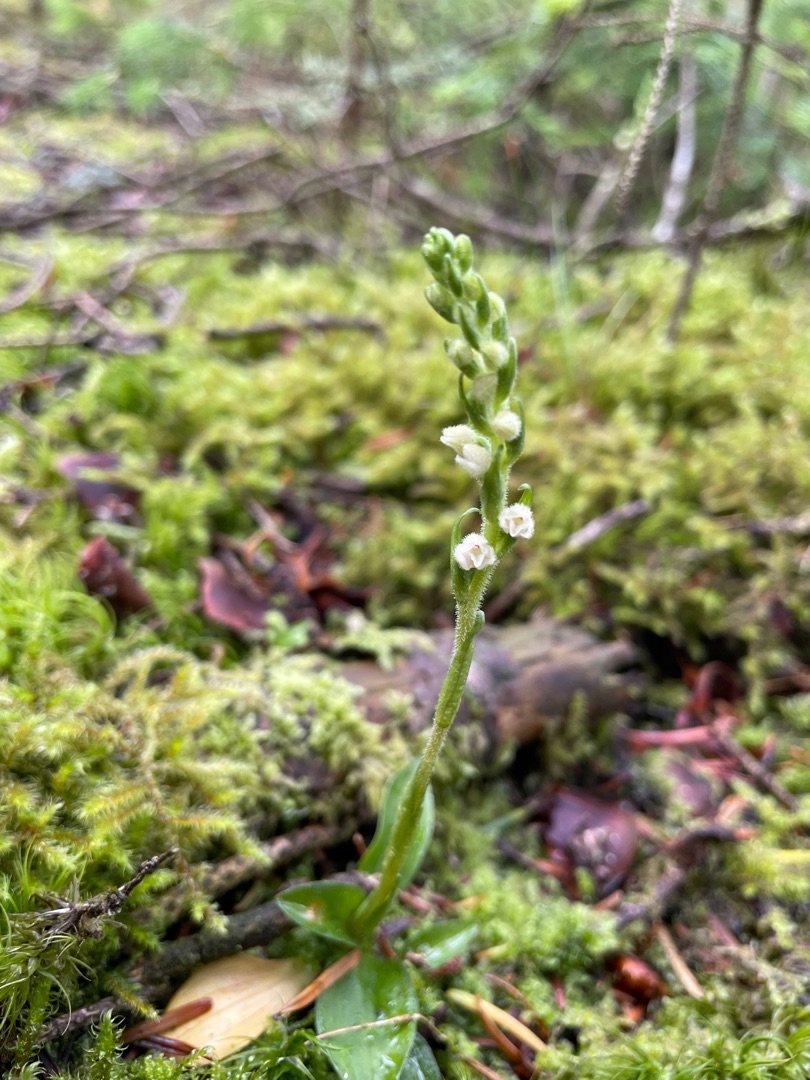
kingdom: Plantae
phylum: Tracheophyta
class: Liliopsida
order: Asparagales
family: Orchidaceae
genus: Goodyera
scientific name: Goodyera repens
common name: Knærod
